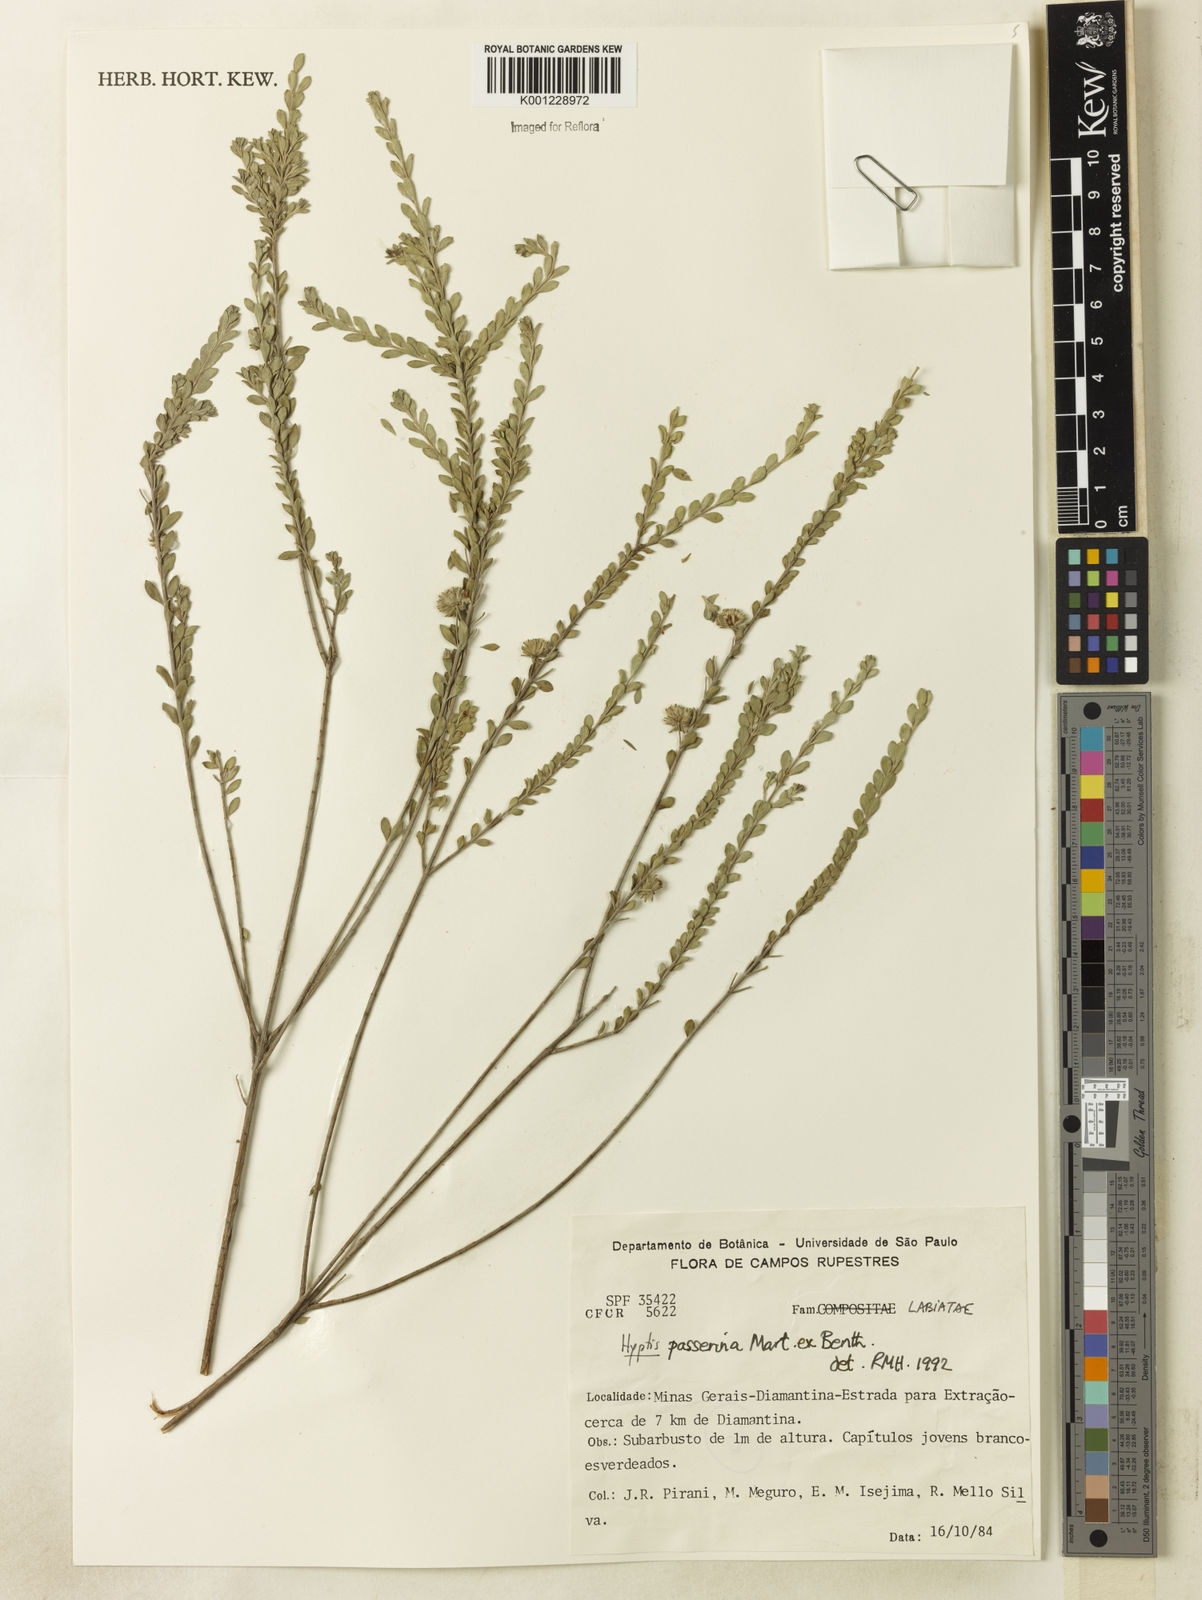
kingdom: Plantae
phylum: Tracheophyta
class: Magnoliopsida
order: Lamiales
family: Lamiaceae
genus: Hyptis
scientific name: Hyptis passerina
